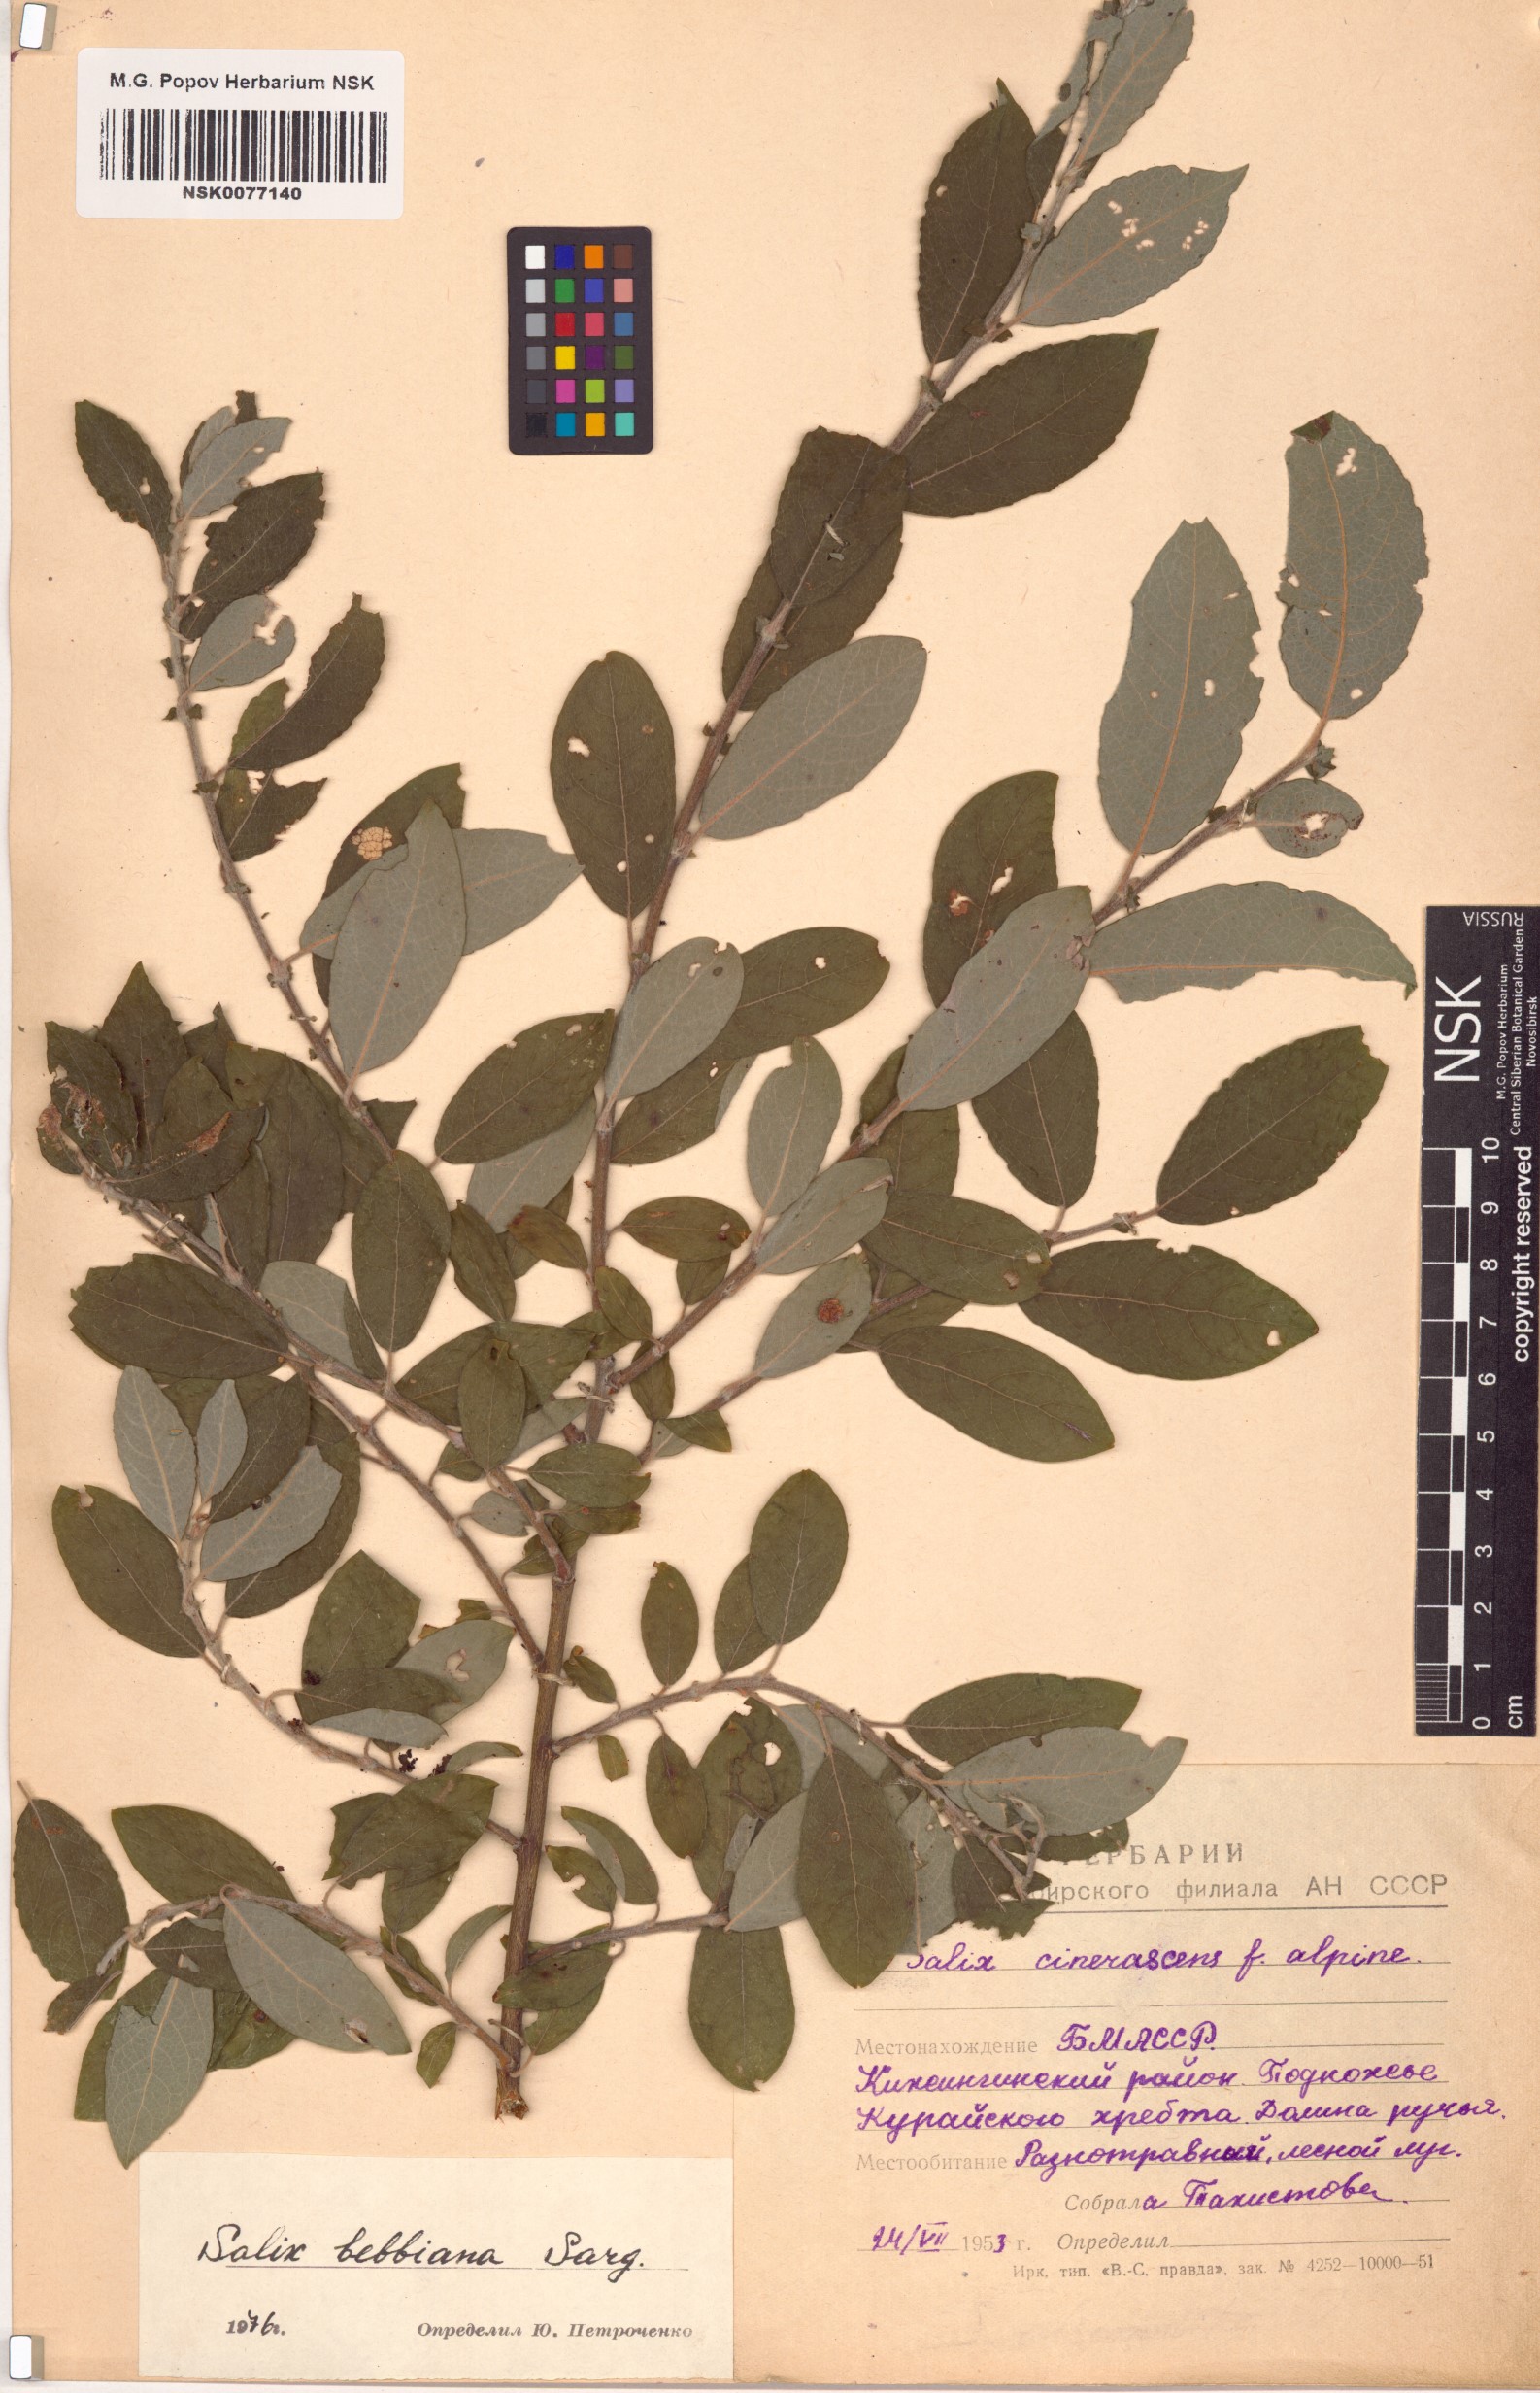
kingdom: Plantae
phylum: Tracheophyta
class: Magnoliopsida
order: Malpighiales
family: Salicaceae
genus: Salix
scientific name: Salix bebbiana
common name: Bebb's willow
